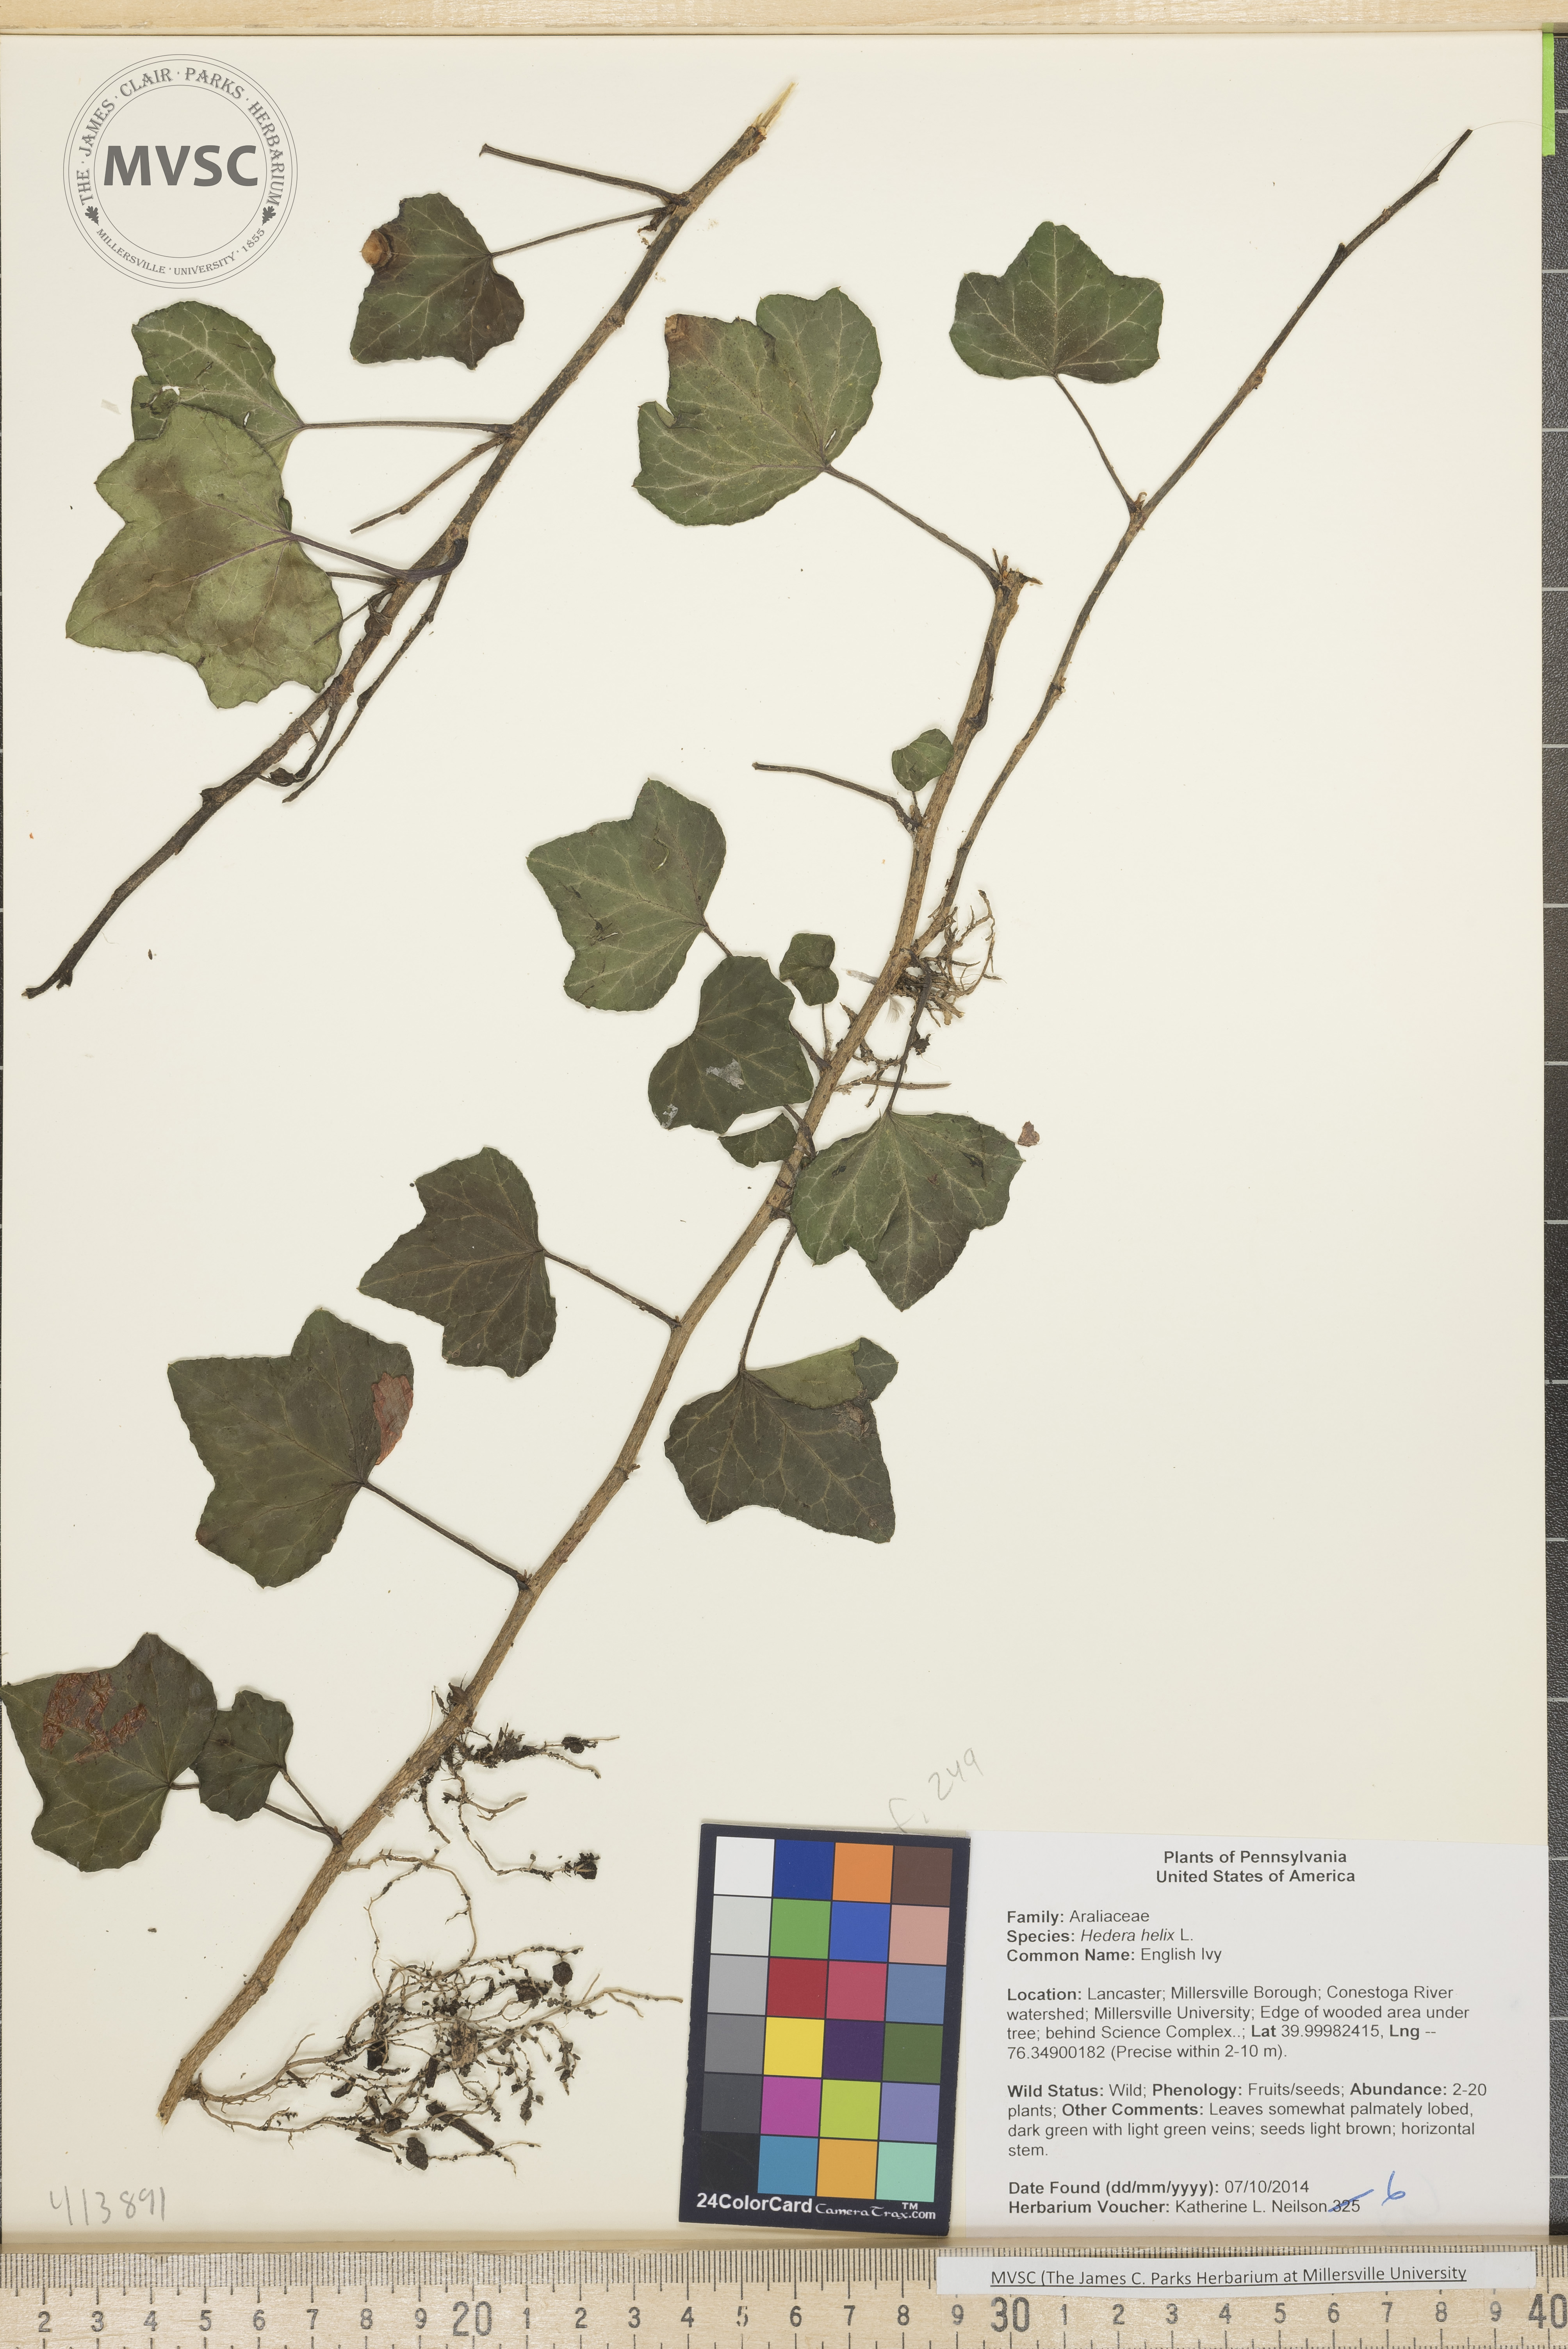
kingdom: Plantae
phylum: Tracheophyta
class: Magnoliopsida
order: Apiales
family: Araliaceae
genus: Hedera
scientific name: Hedera helix
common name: English Ivy
